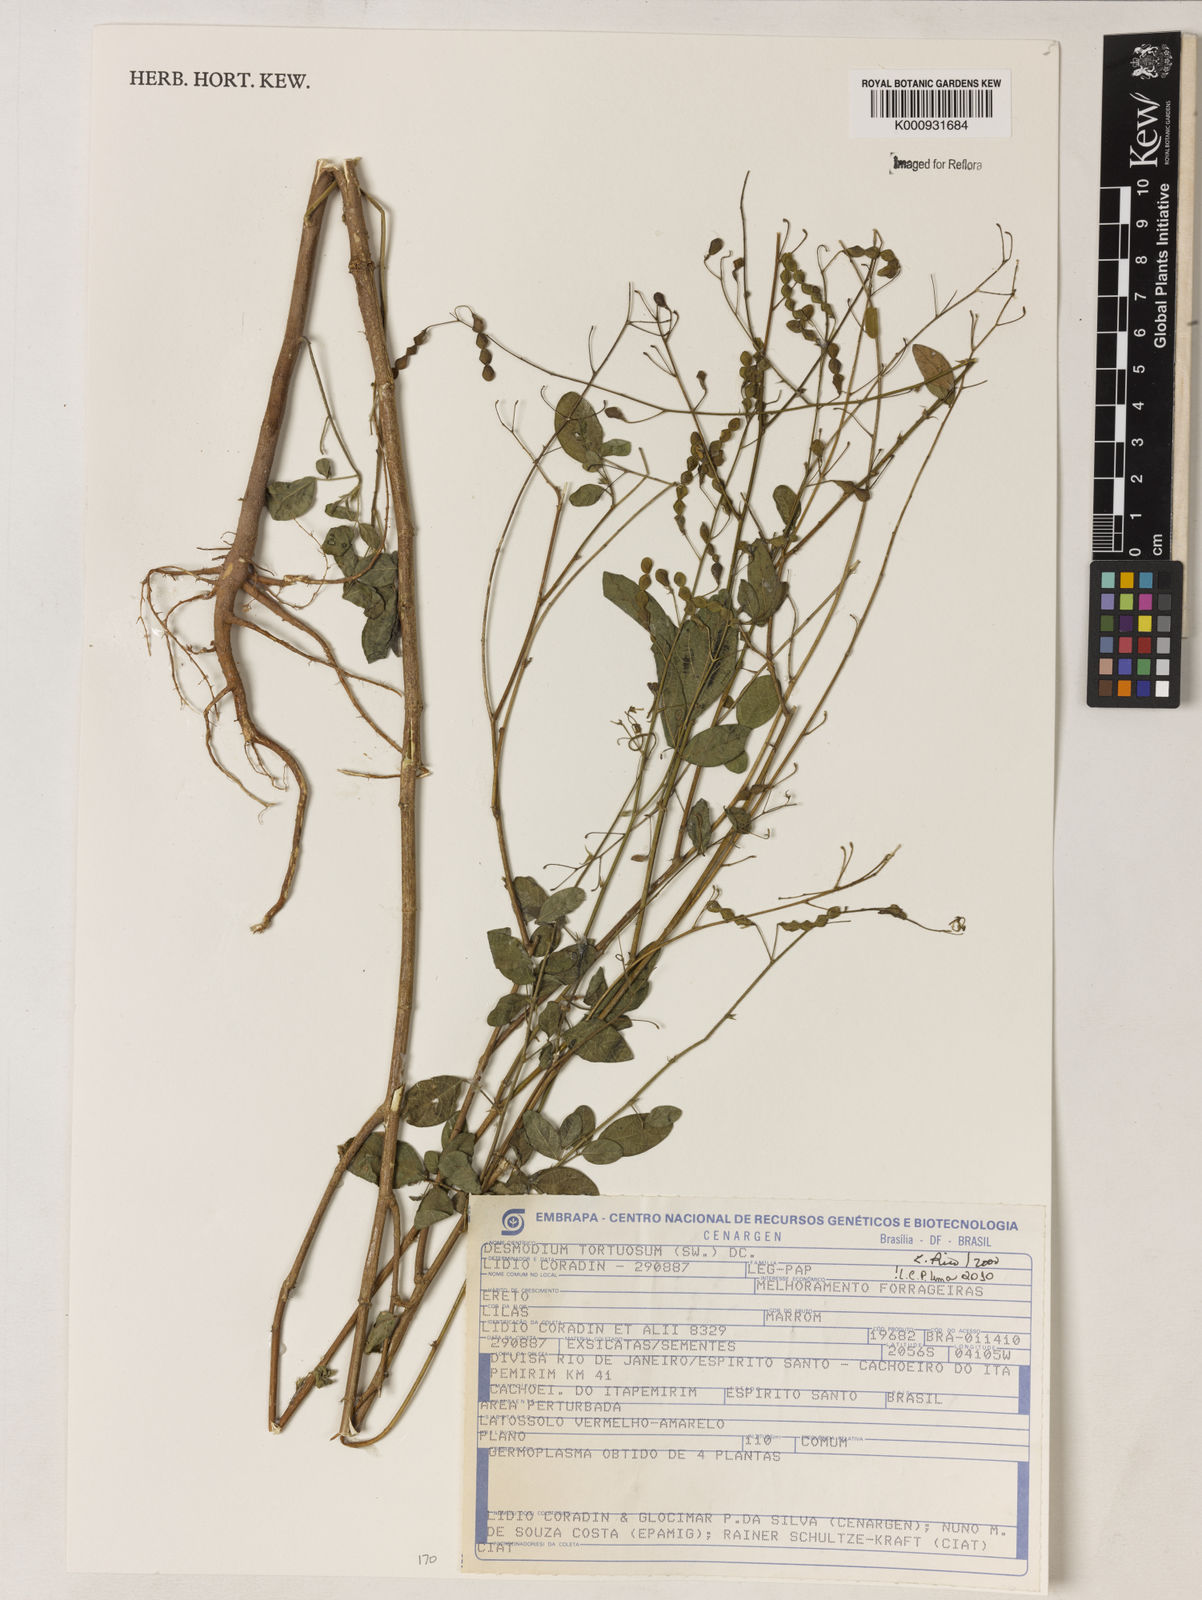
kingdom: Plantae
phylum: Tracheophyta
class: Magnoliopsida
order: Fabales
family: Fabaceae
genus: Desmodium
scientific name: Desmodium tortuosum
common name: Dixie ticktrefoil
